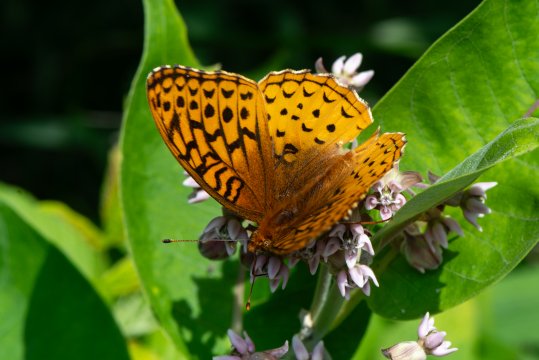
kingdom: Animalia
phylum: Arthropoda
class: Insecta
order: Lepidoptera
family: Nymphalidae
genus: Speyeria
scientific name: Speyeria cybele
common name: Great Spangled Fritillary
